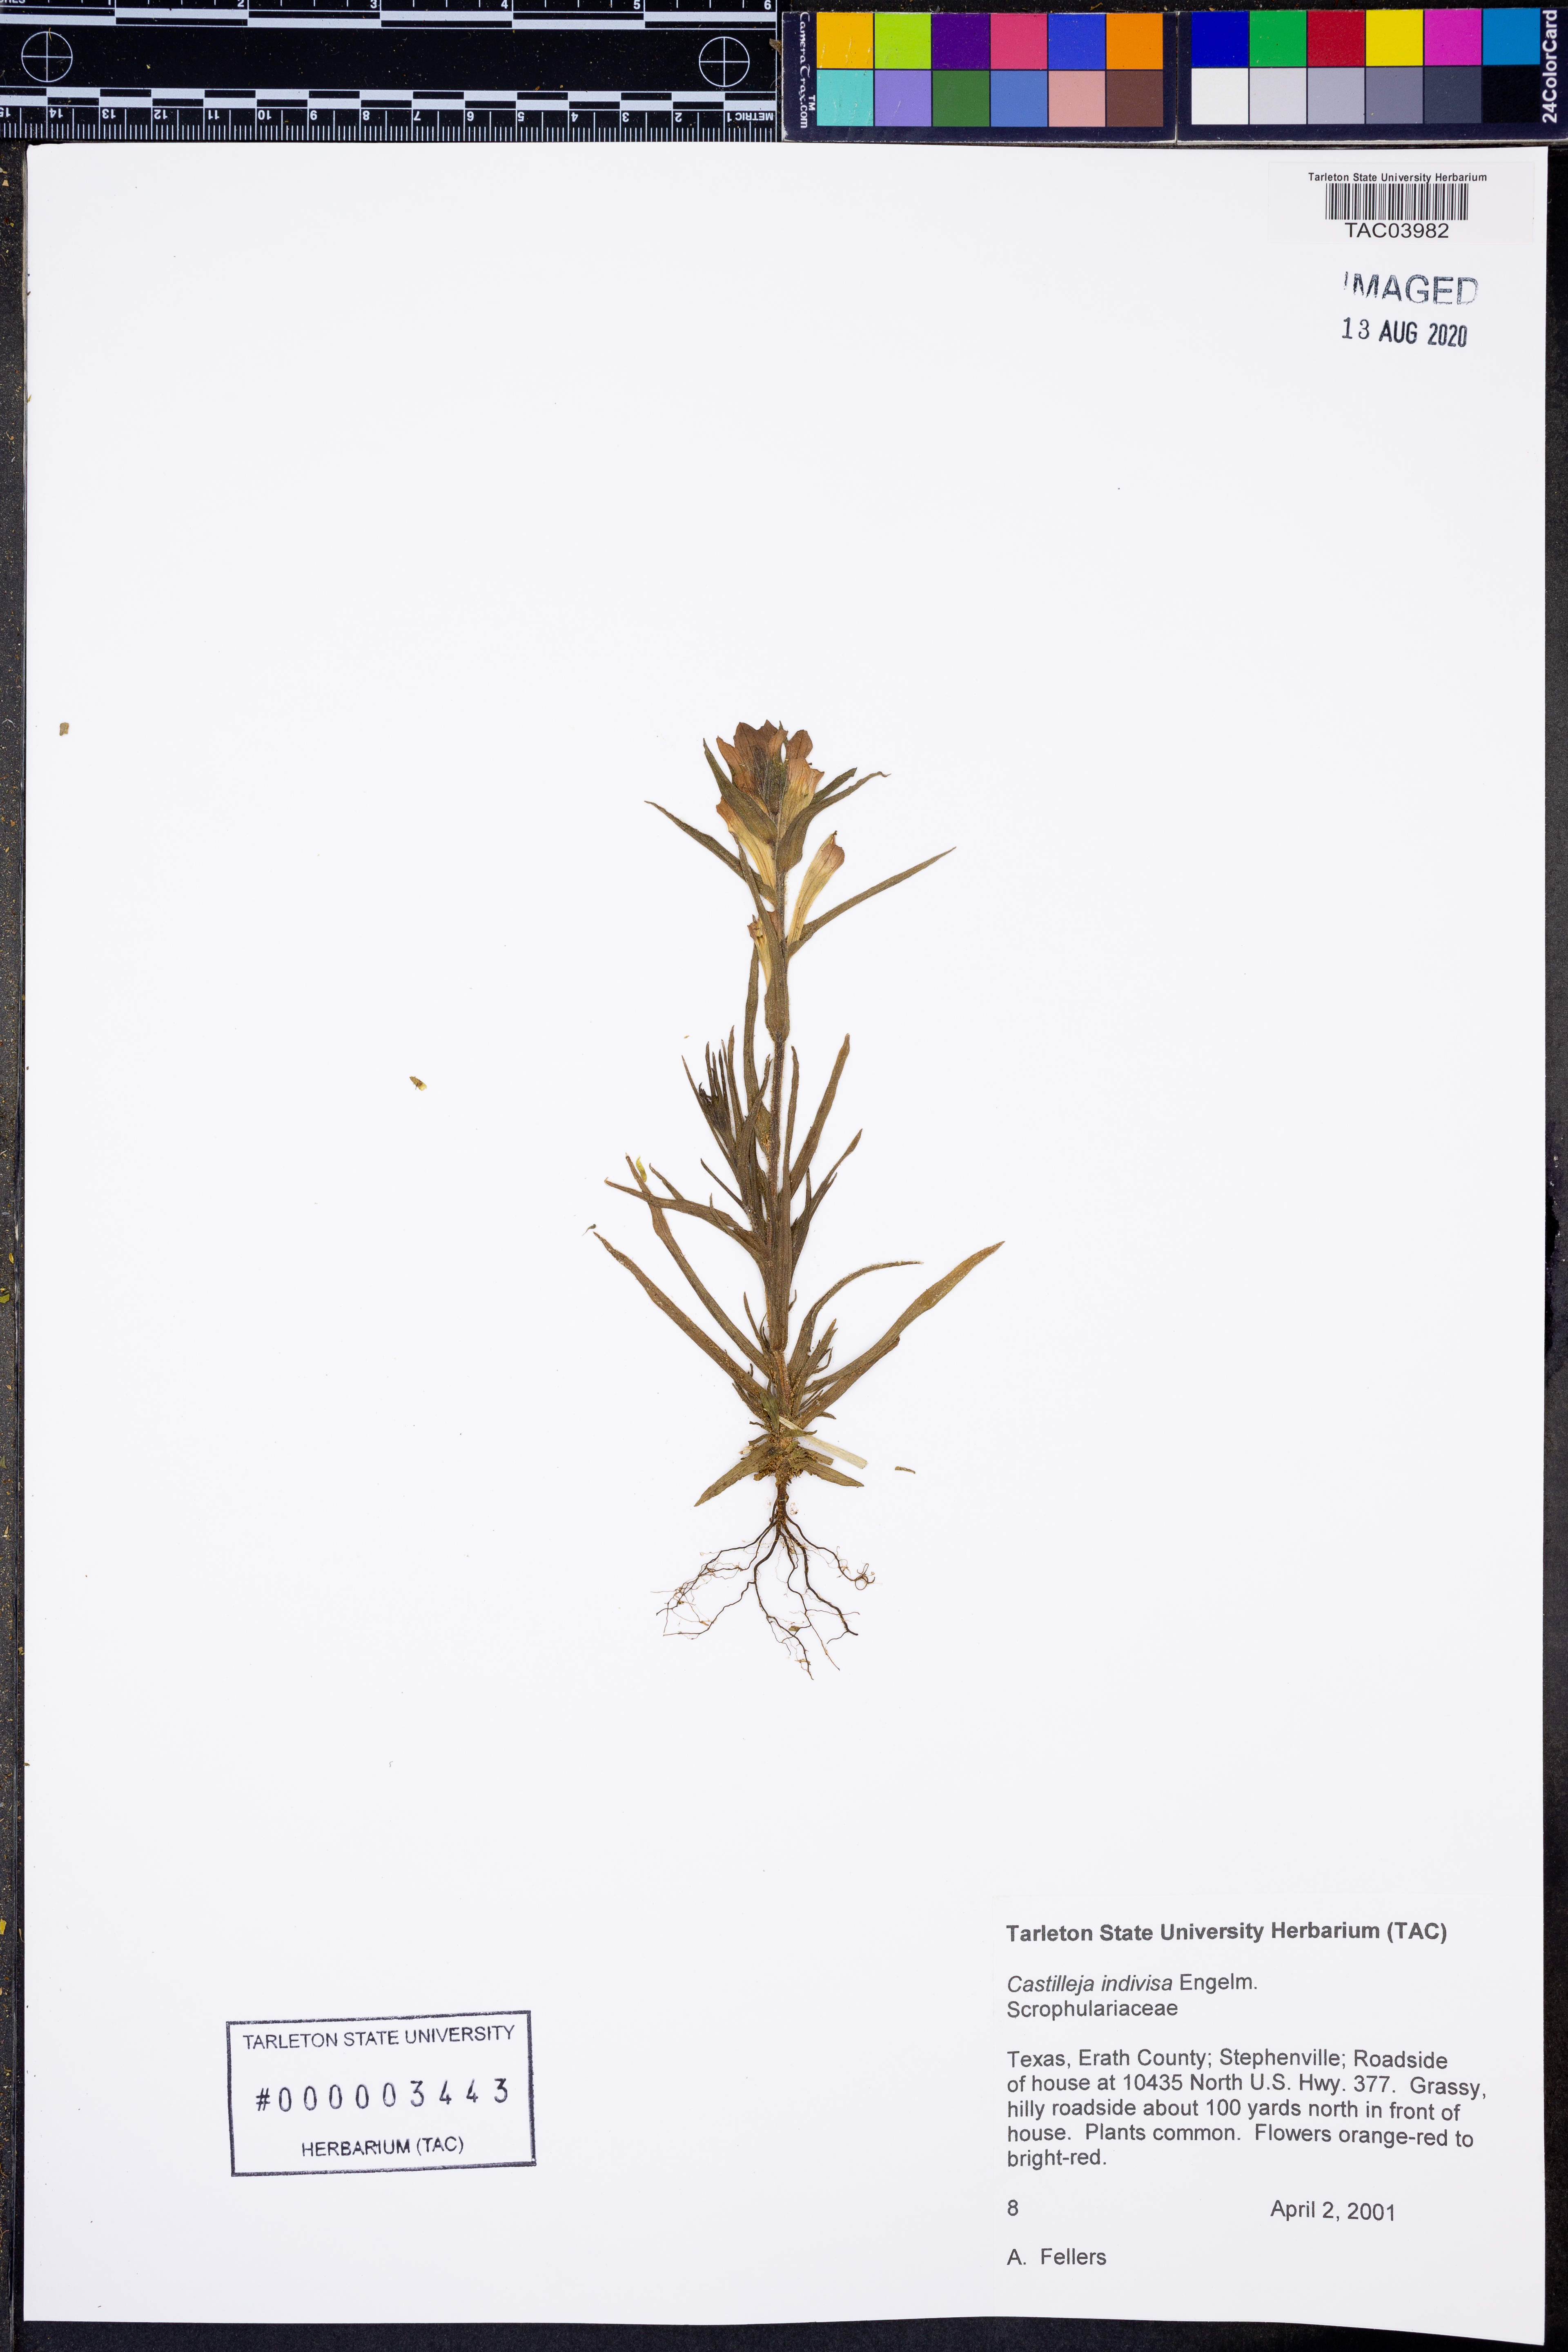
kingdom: Plantae
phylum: Tracheophyta
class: Magnoliopsida
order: Lamiales
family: Orobanchaceae
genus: Castilleja
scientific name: Castilleja indivisa
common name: Texas paintbrush
